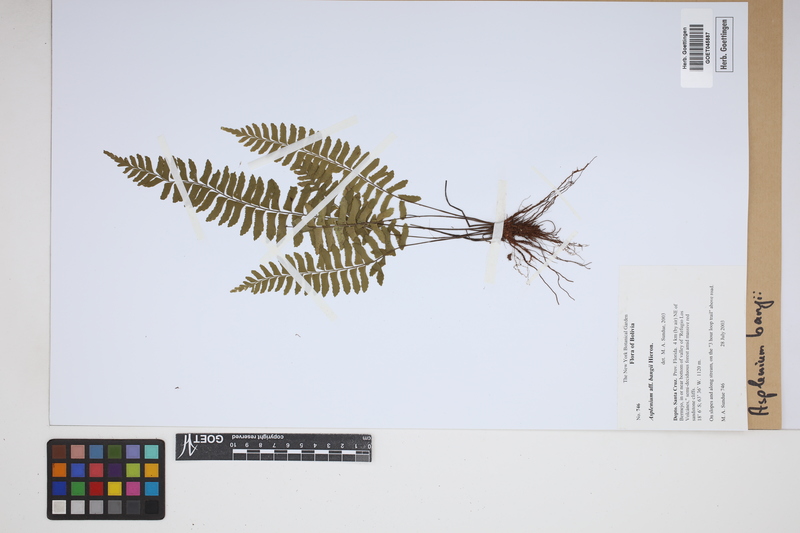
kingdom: Plantae
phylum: Tracheophyta
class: Polypodiopsida
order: Polypodiales
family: Aspleniaceae
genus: Asplenium
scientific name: Asplenium bangii
